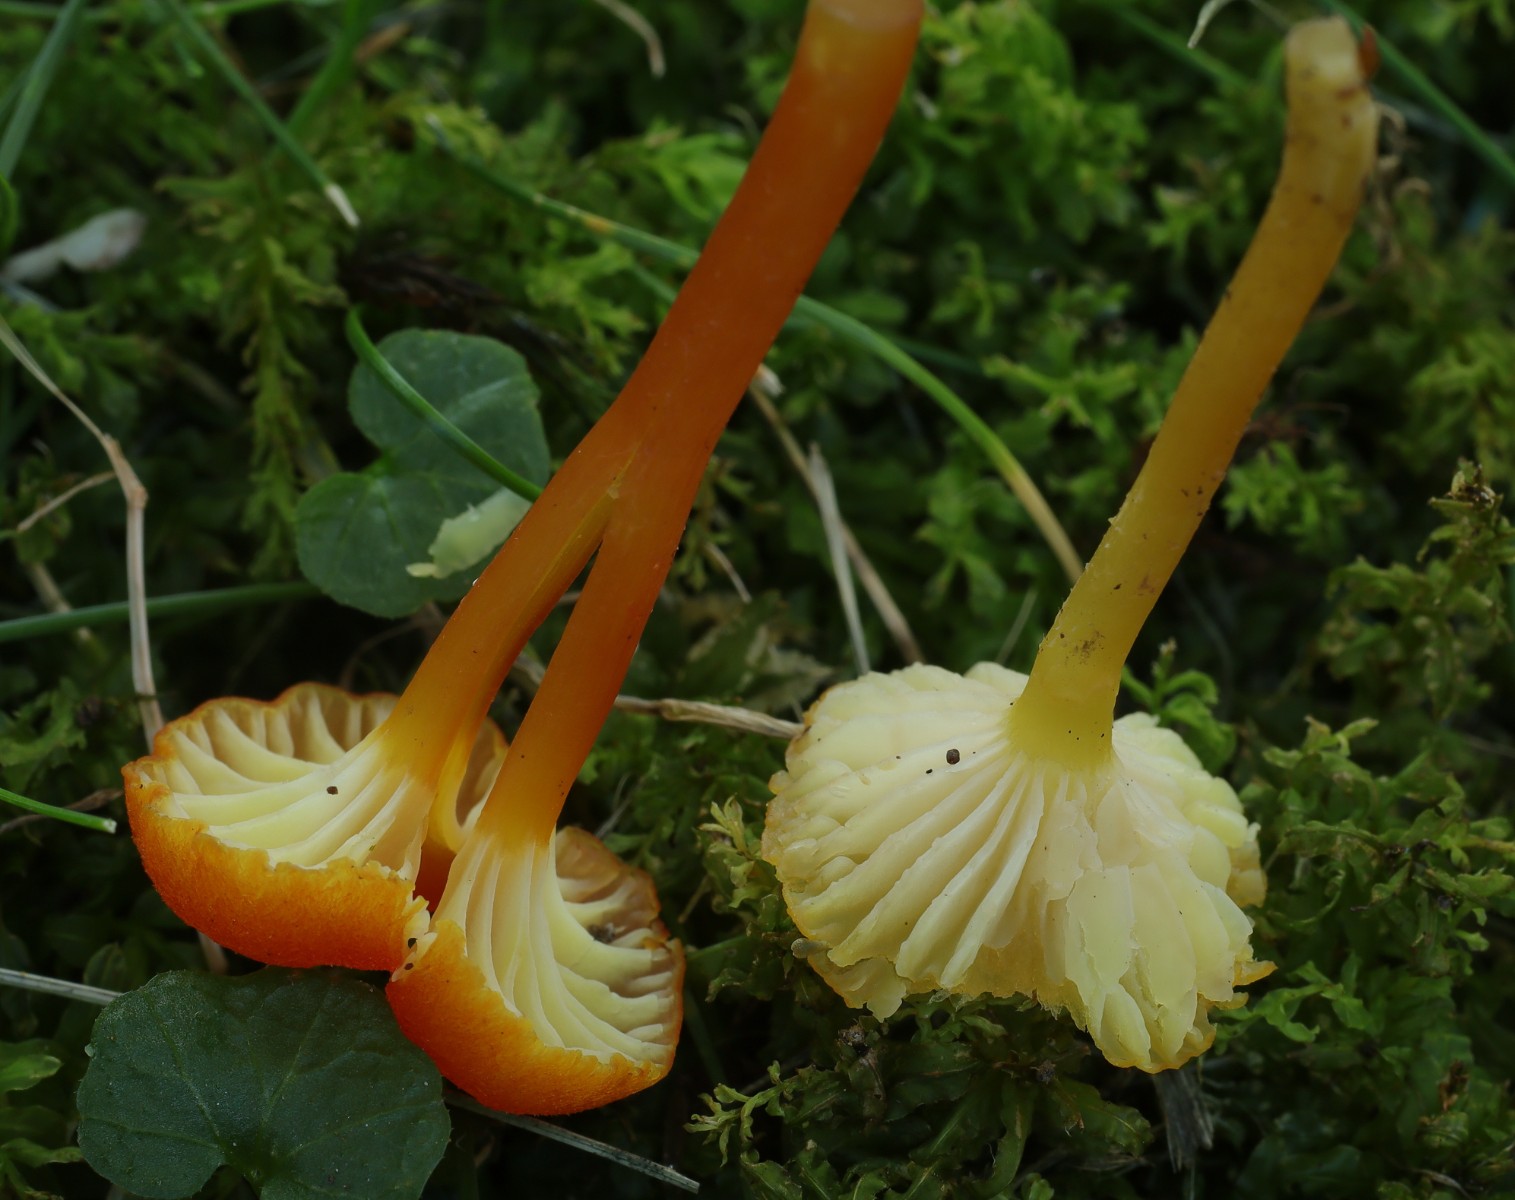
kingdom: Fungi
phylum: Basidiomycota
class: Agaricomycetes
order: Agaricales
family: Hygrophoraceae
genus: Hygrocybe
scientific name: Hygrocybe cantharellus
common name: kantarel-vokshat
